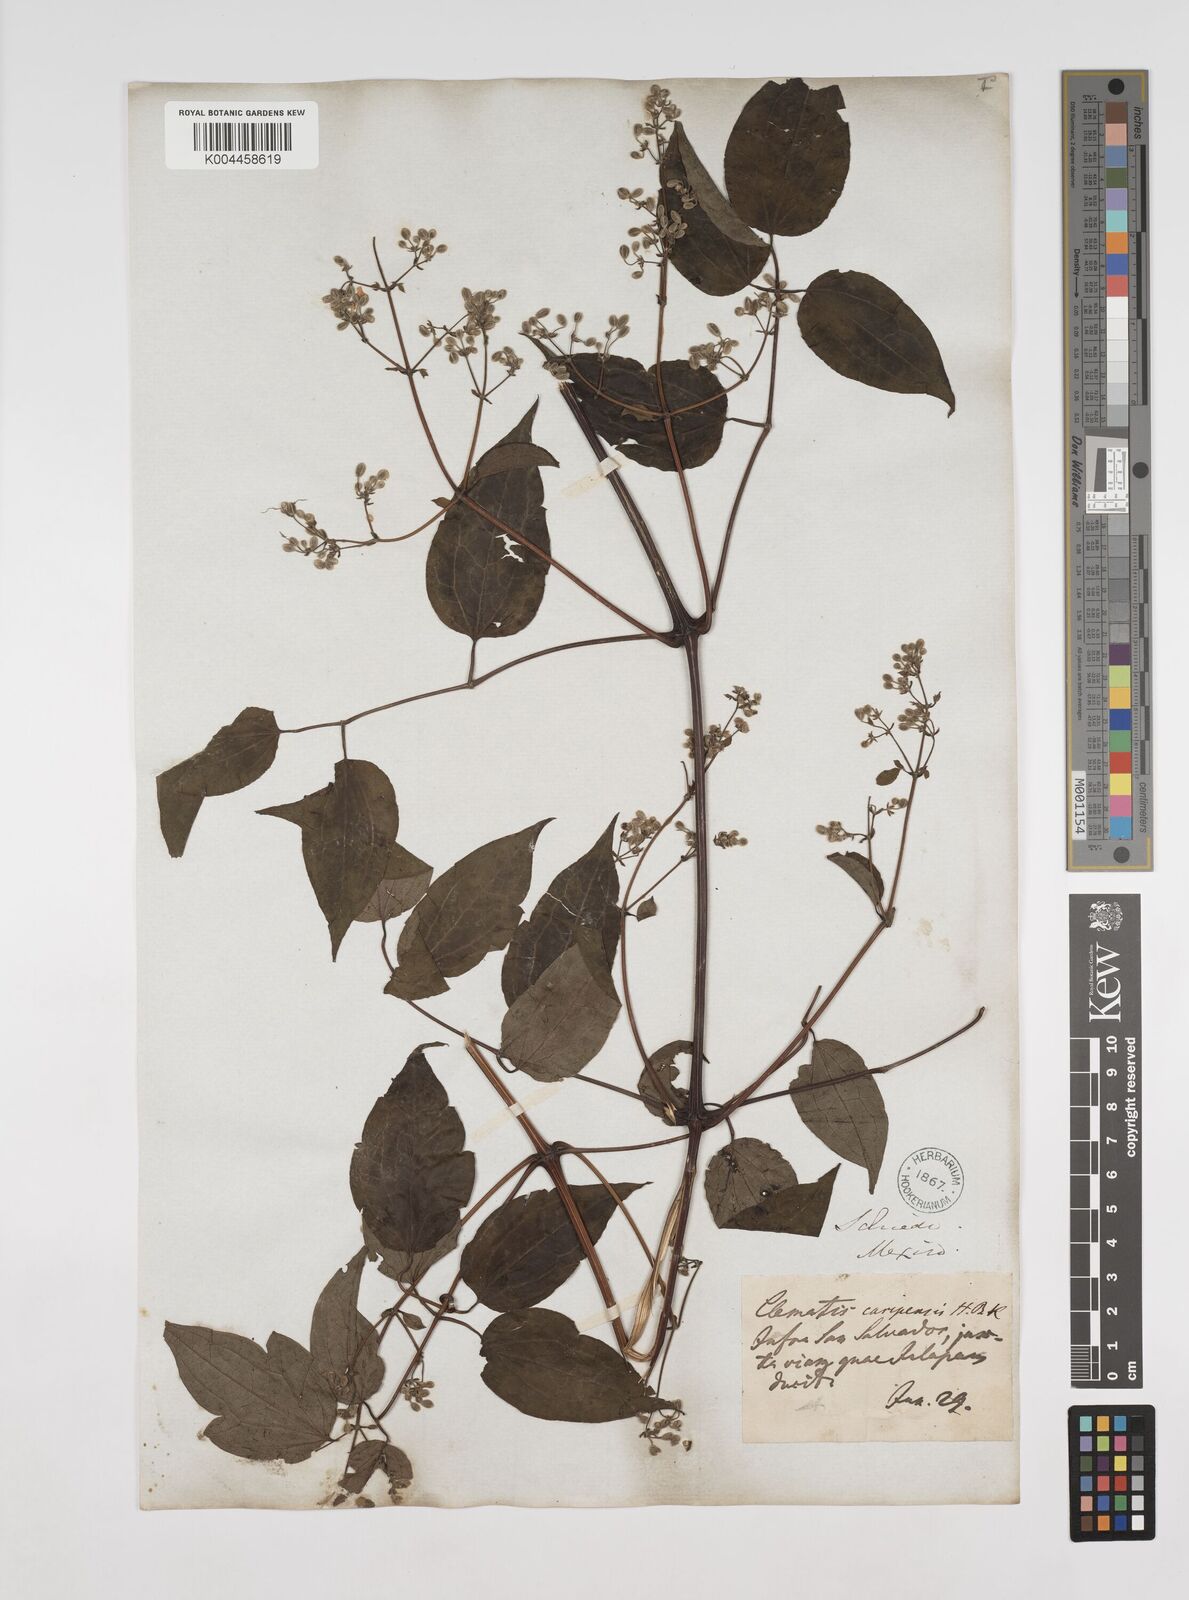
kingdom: Plantae
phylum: Tracheophyta
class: Magnoliopsida
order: Ranunculales
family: Ranunculaceae
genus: Clematis
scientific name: Clematis guadeloupae
